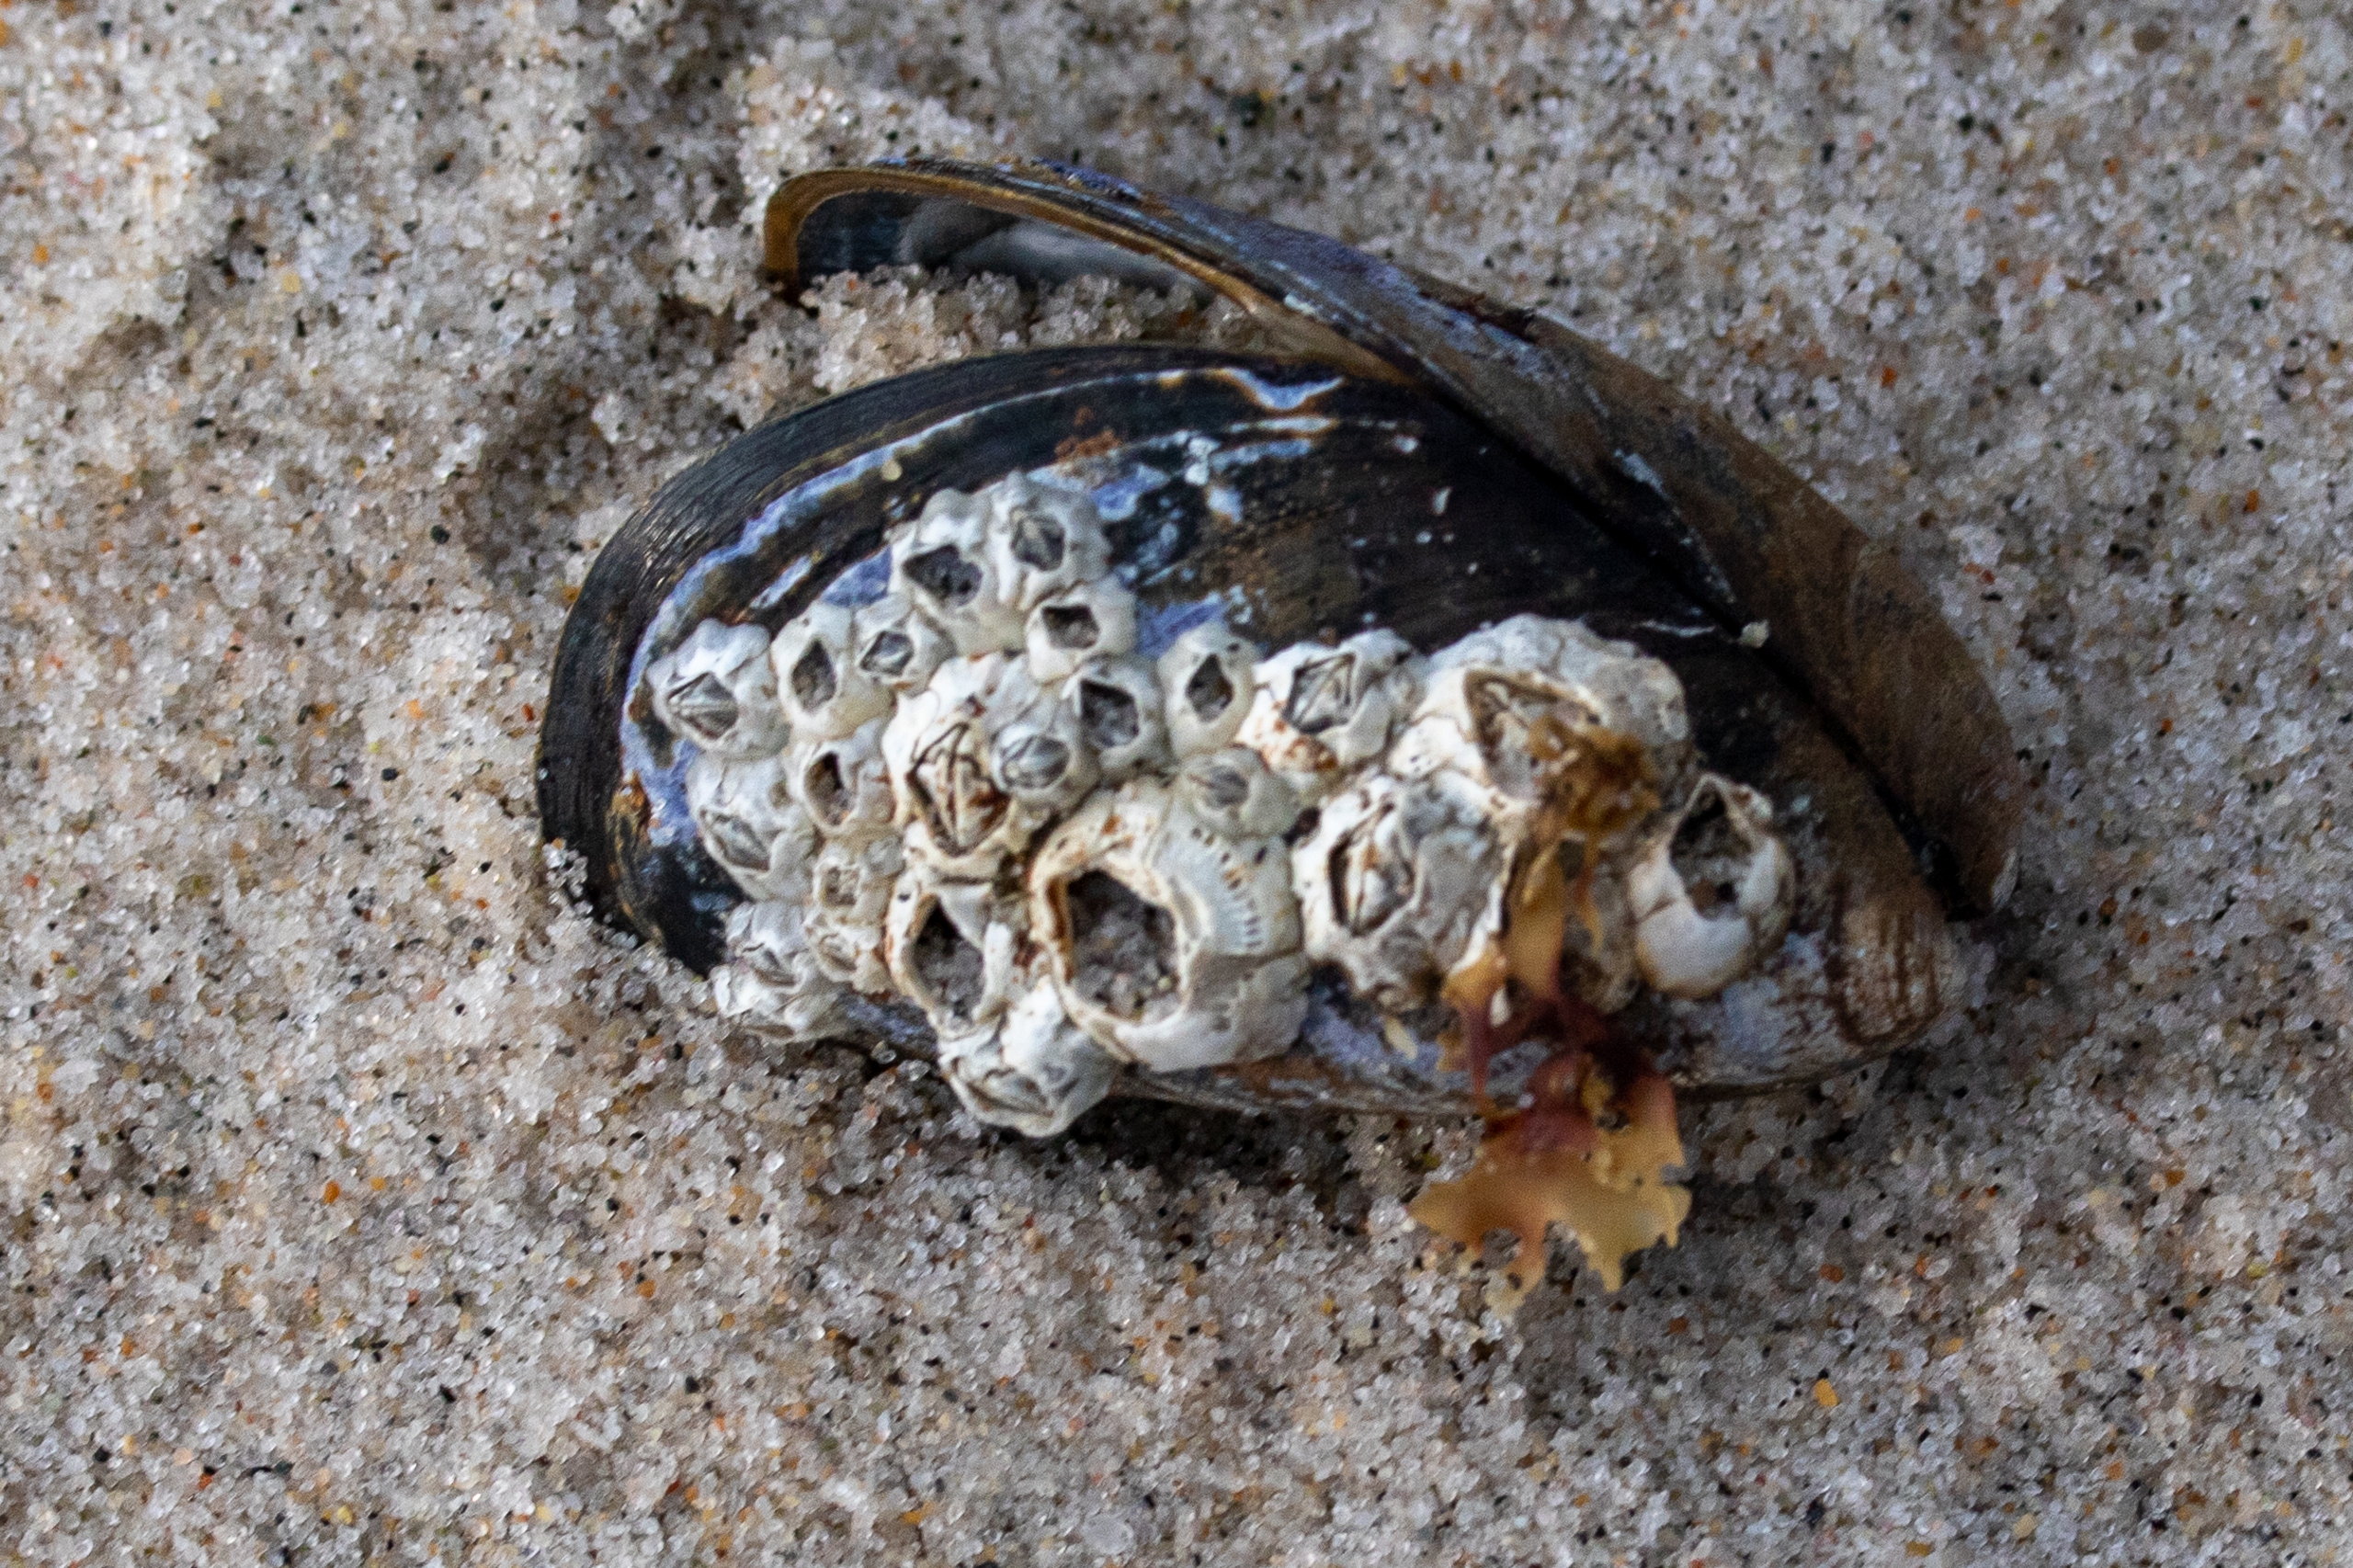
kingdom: Animalia
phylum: Mollusca
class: Bivalvia
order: Mytilida
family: Mytilidae
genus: Mytilus
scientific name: Mytilus edulis
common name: Blåmusling
